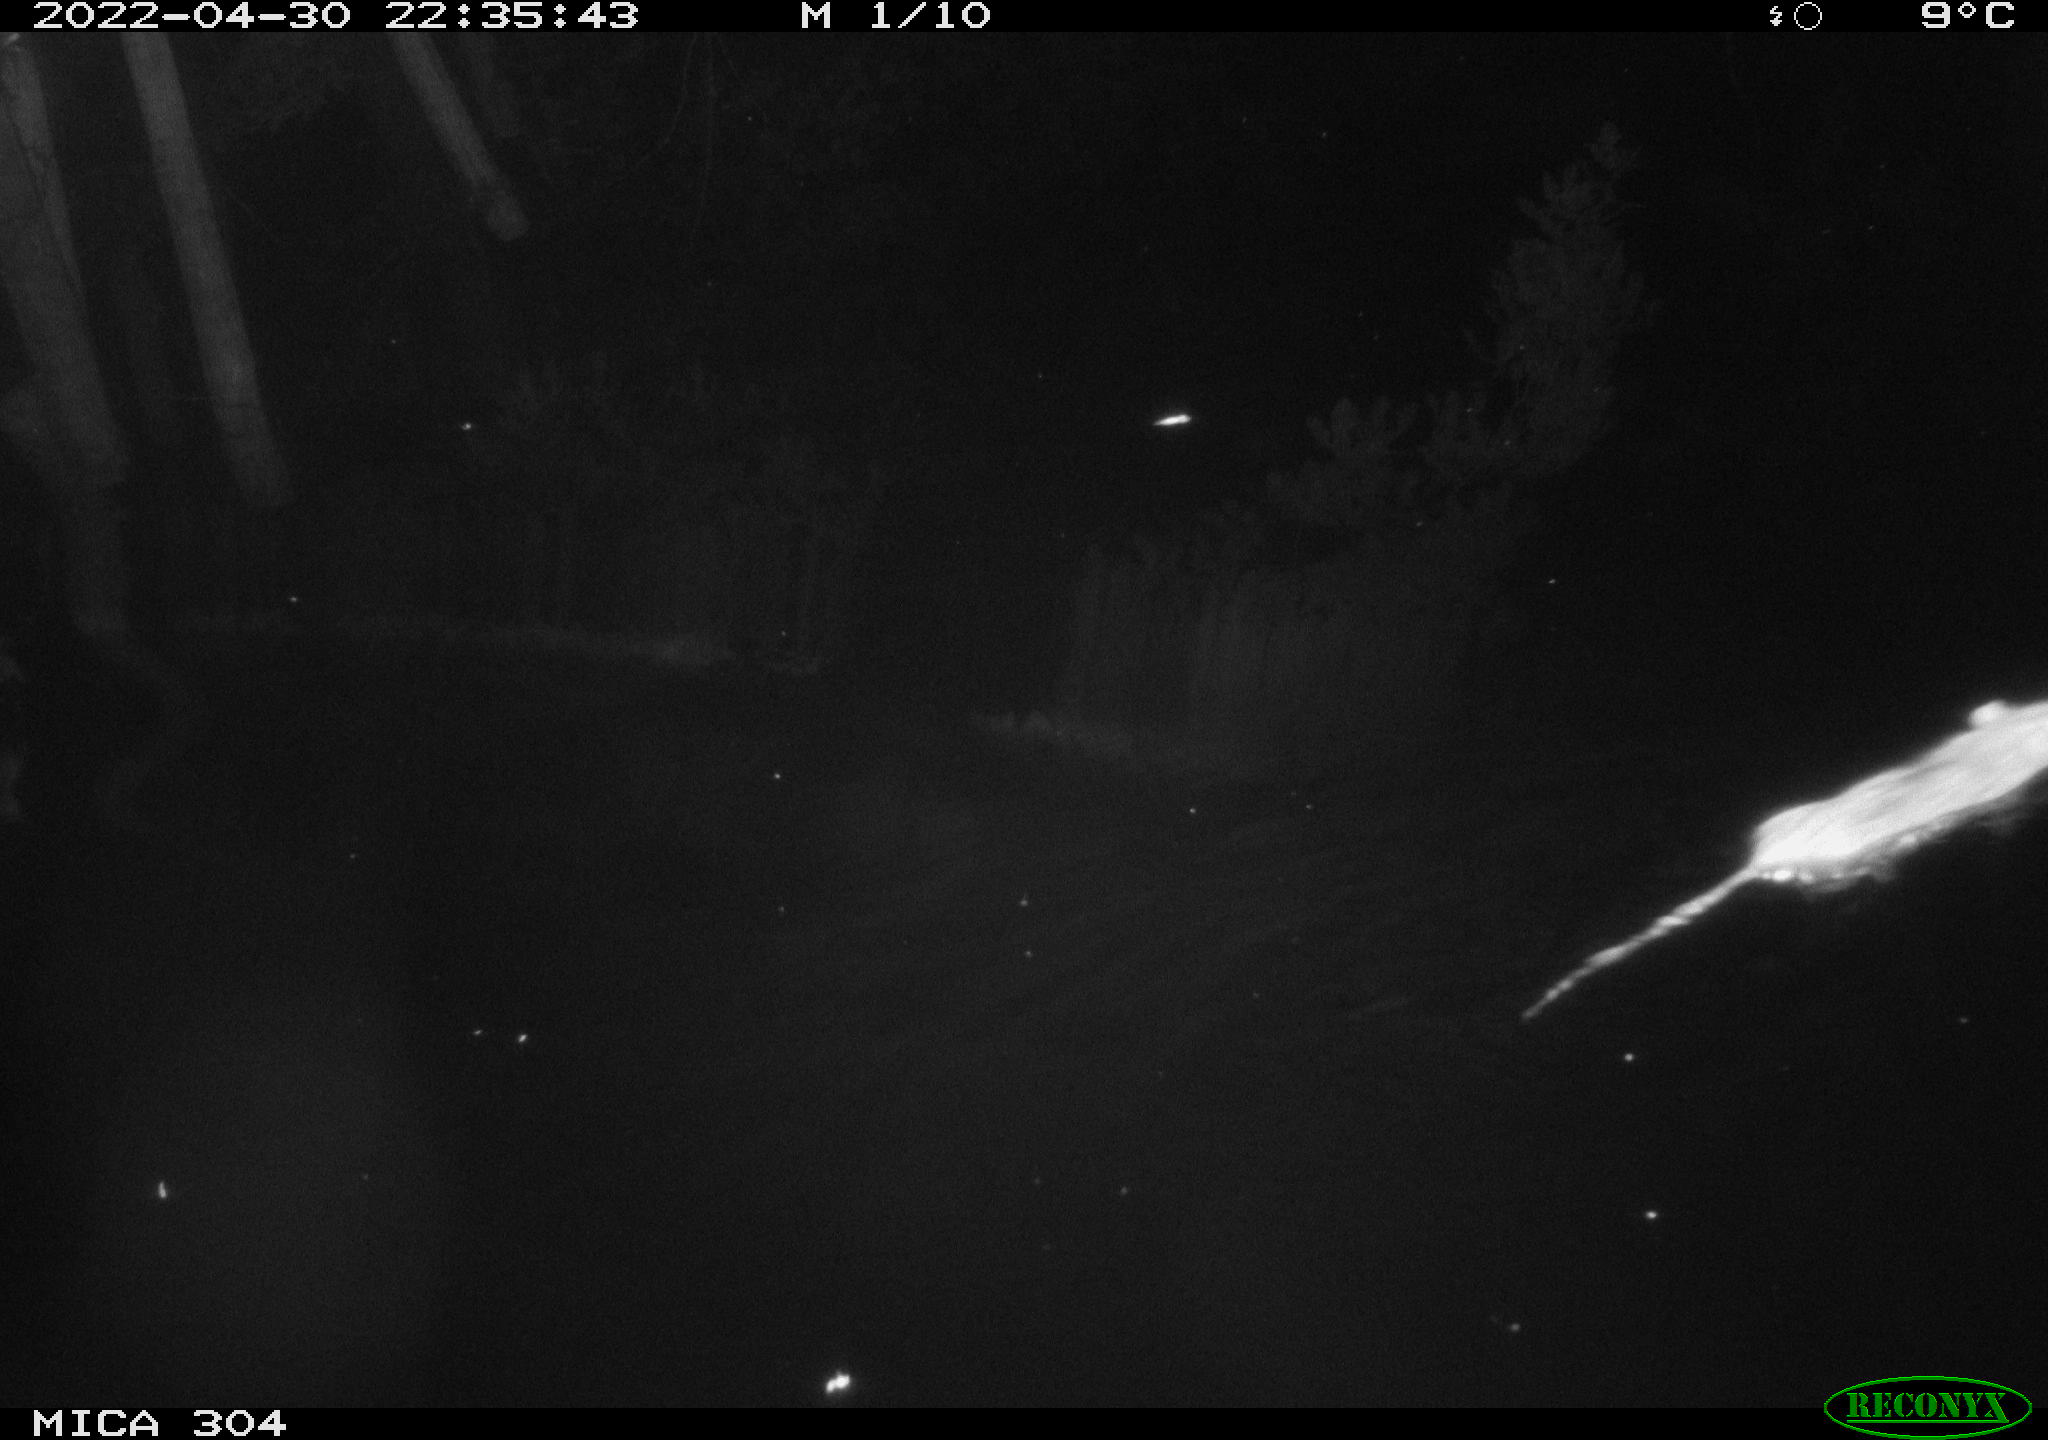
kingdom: Animalia
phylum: Chordata
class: Mammalia
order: Rodentia
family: Muridae
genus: Rattus
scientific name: Rattus norvegicus
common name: Brown rat
